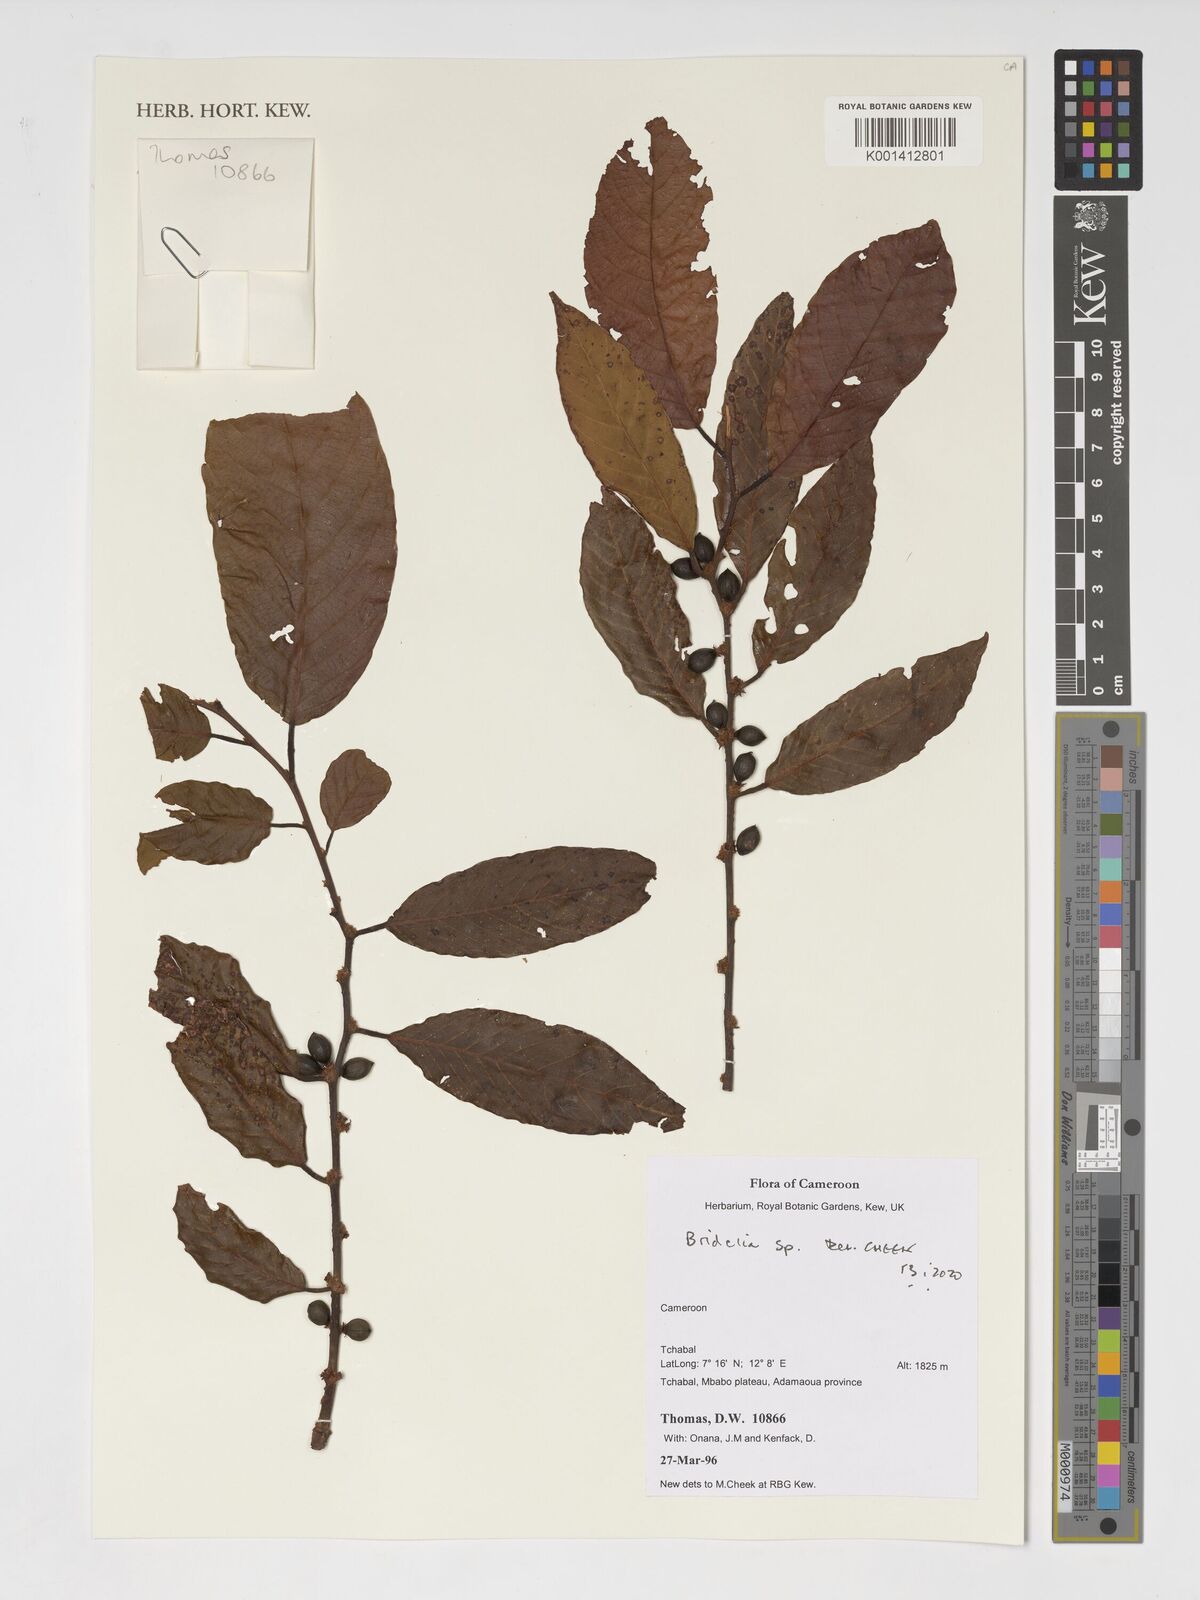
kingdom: Plantae
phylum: Tracheophyta
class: Magnoliopsida
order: Malpighiales
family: Phyllanthaceae
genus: Bridelia
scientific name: Bridelia
